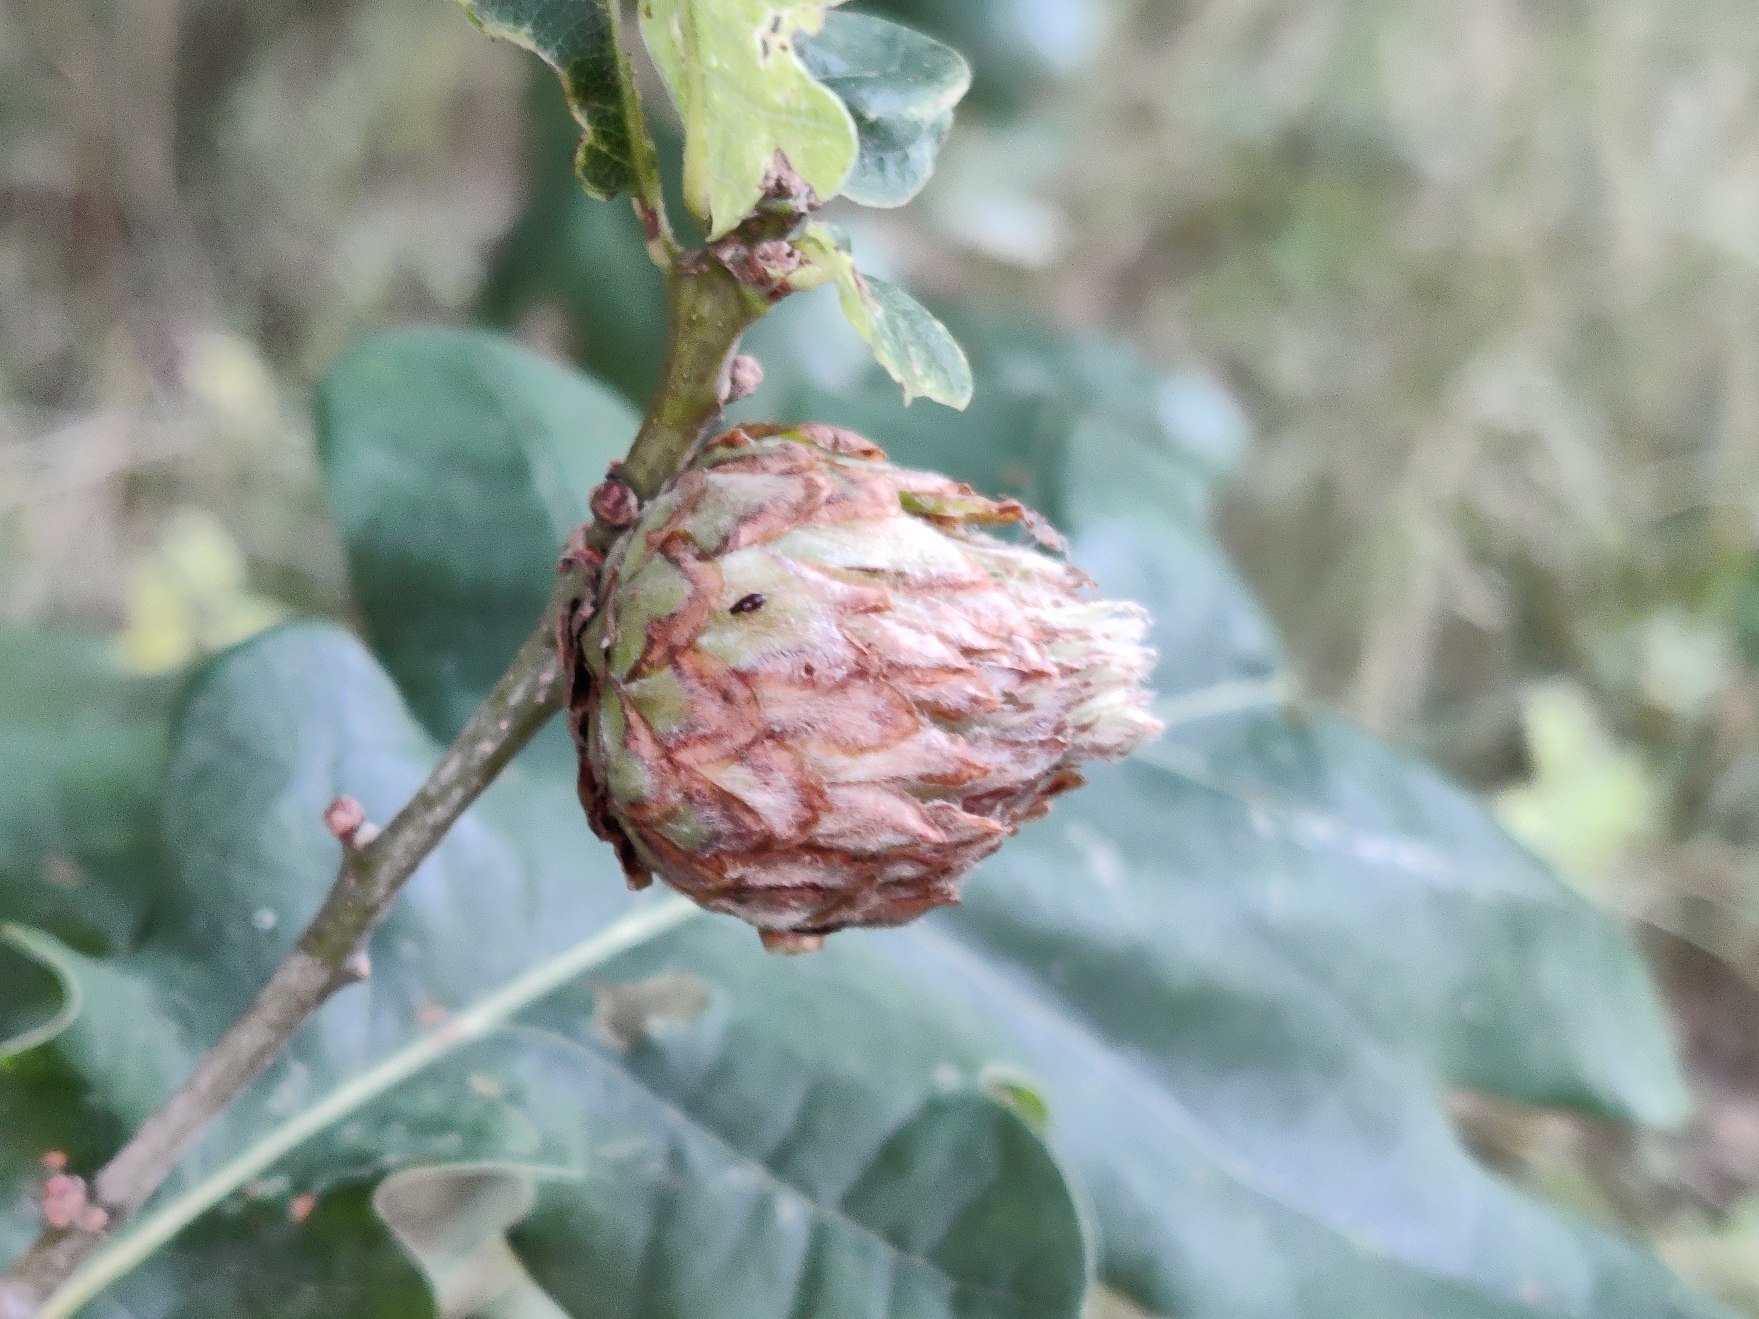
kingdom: Animalia
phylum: Arthropoda
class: Insecta
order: Hymenoptera
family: Cynipidae
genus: Andricus
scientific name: Andricus foecundatrix
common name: Artiskokgalhveps
